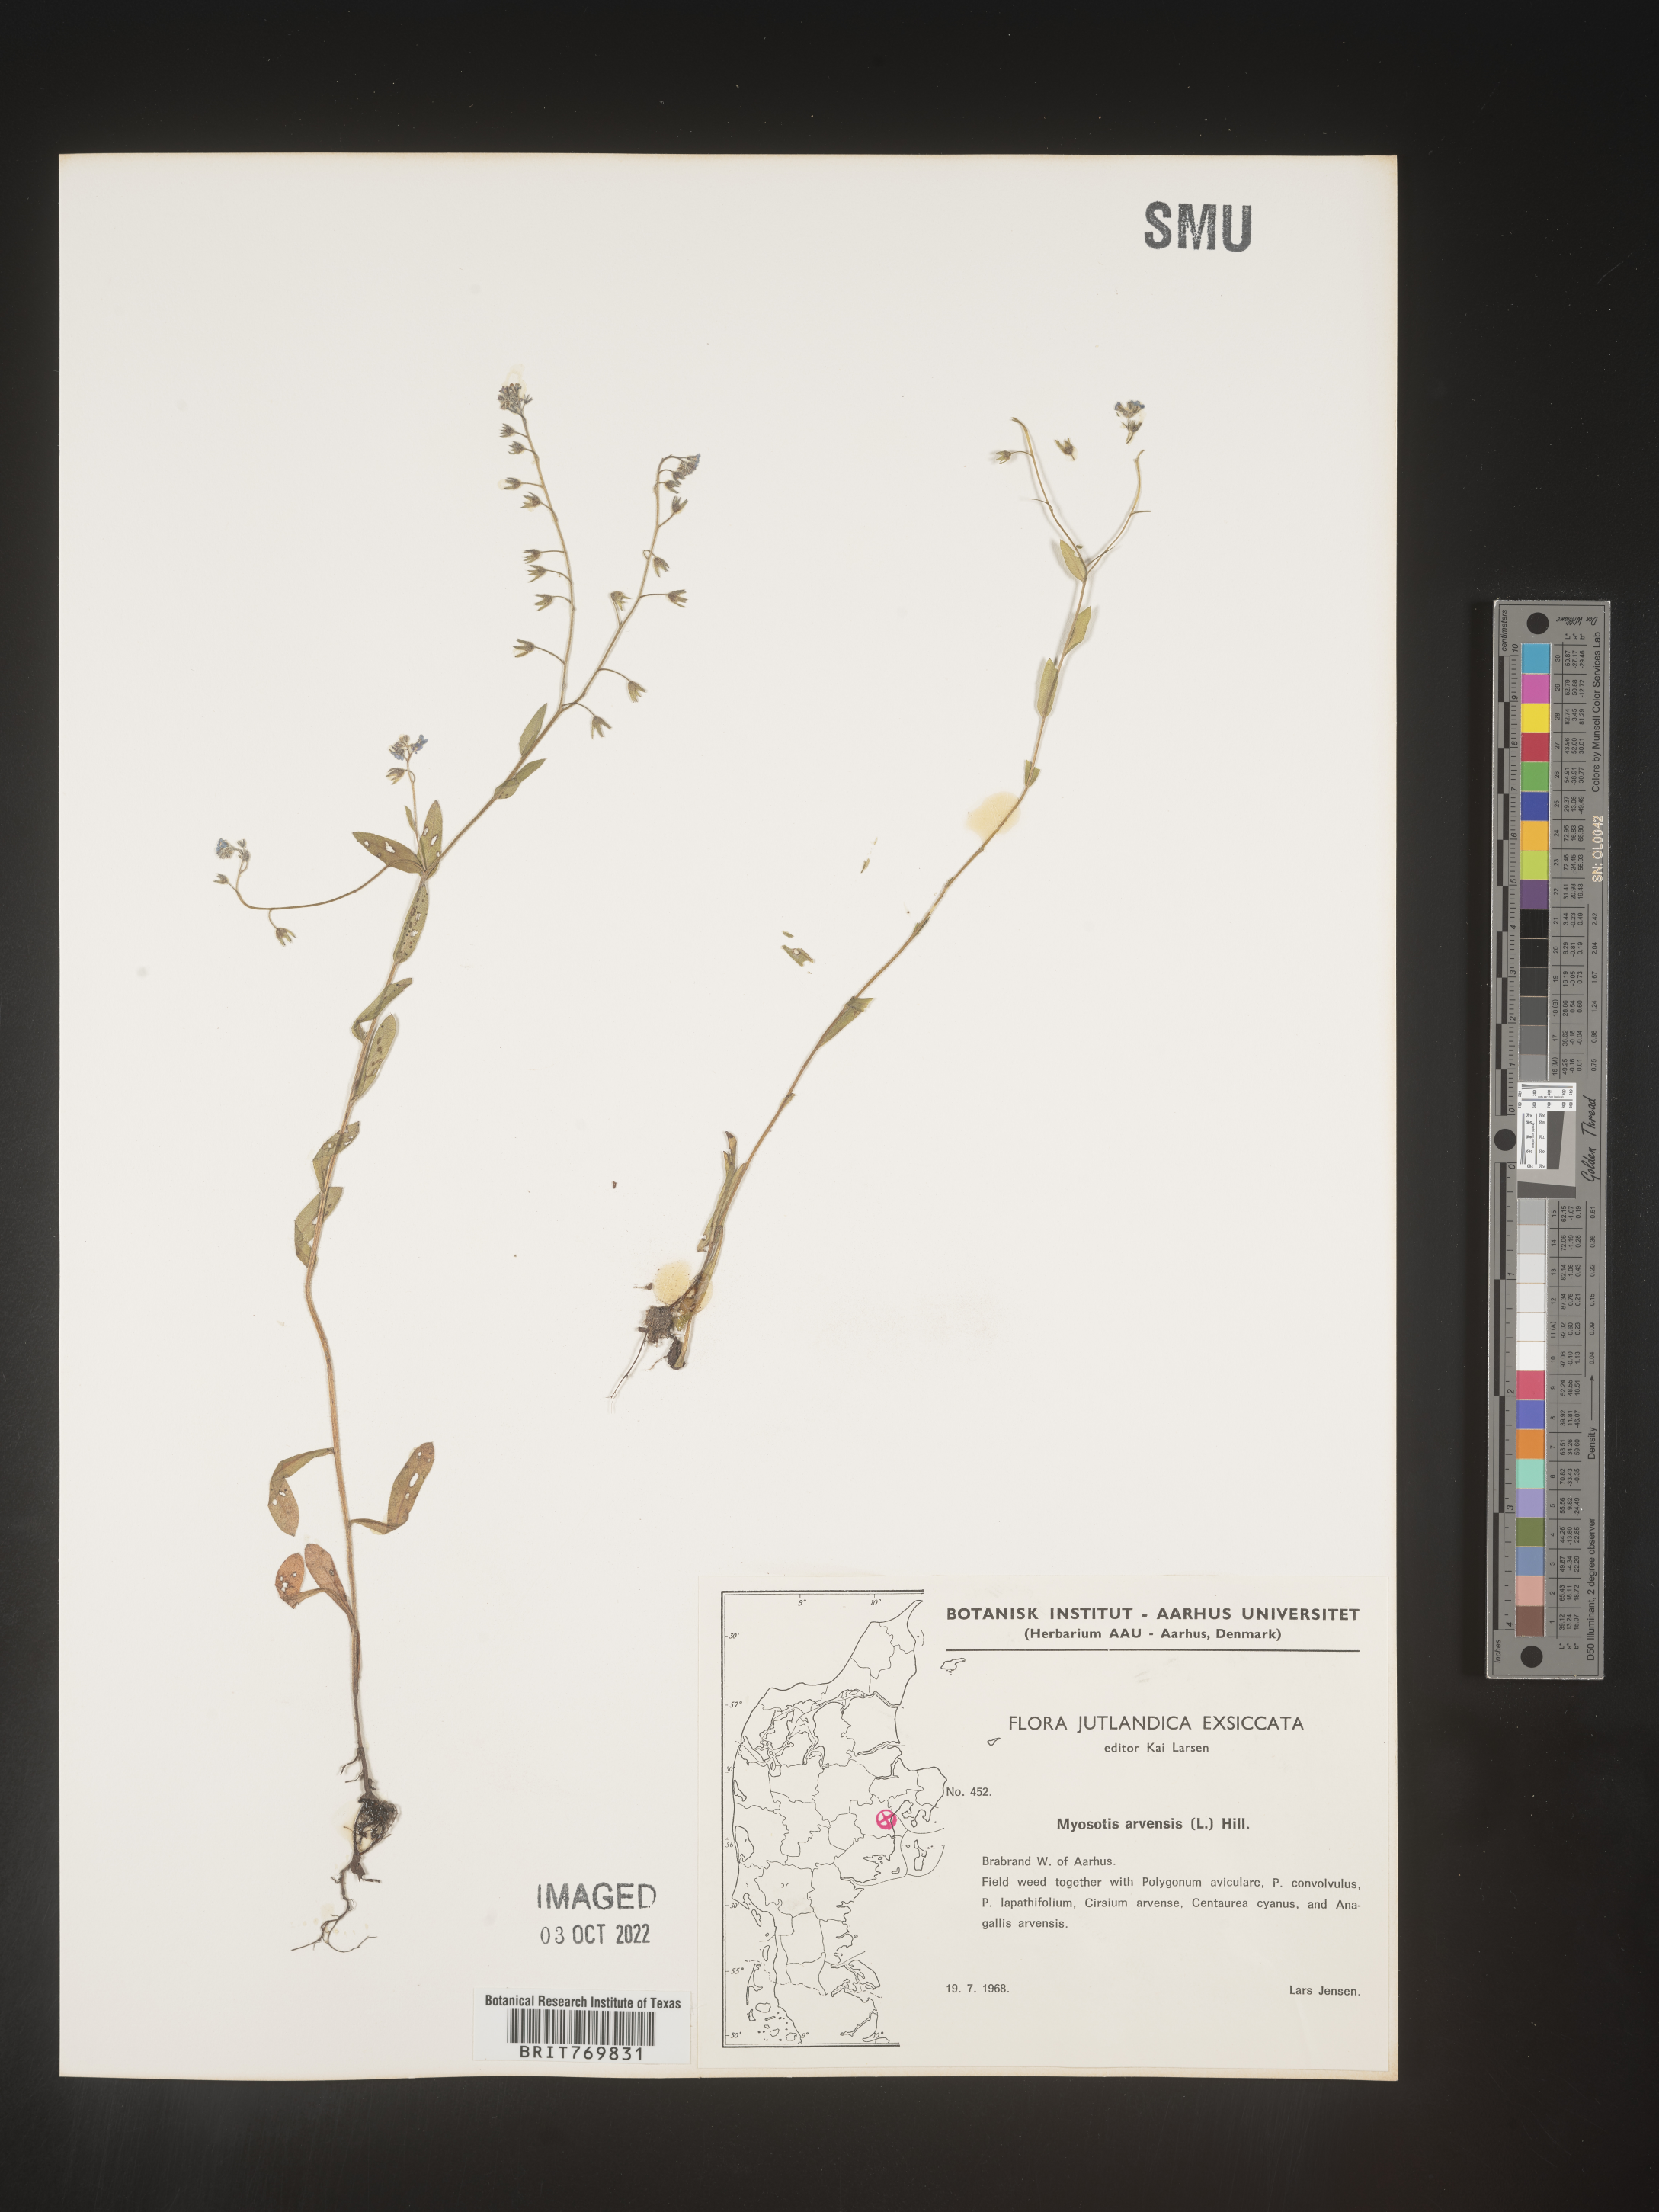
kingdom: Plantae
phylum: Tracheophyta
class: Magnoliopsida
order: Boraginales
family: Boraginaceae
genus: Myosotis
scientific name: Myosotis
